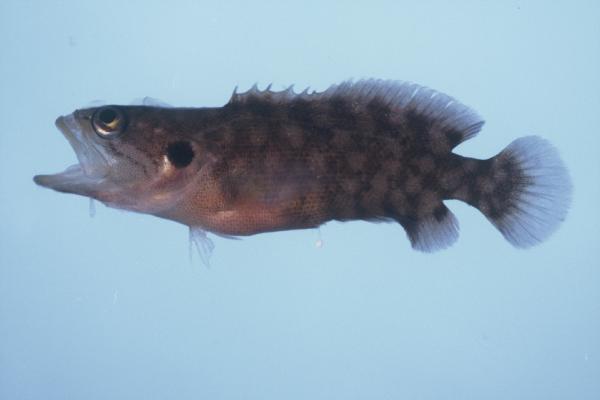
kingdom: Animalia
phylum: Chordata
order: Perciformes
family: Serranidae
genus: Pseudogramma
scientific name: Pseudogramma polyacantha
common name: Bold-spot soapfish
